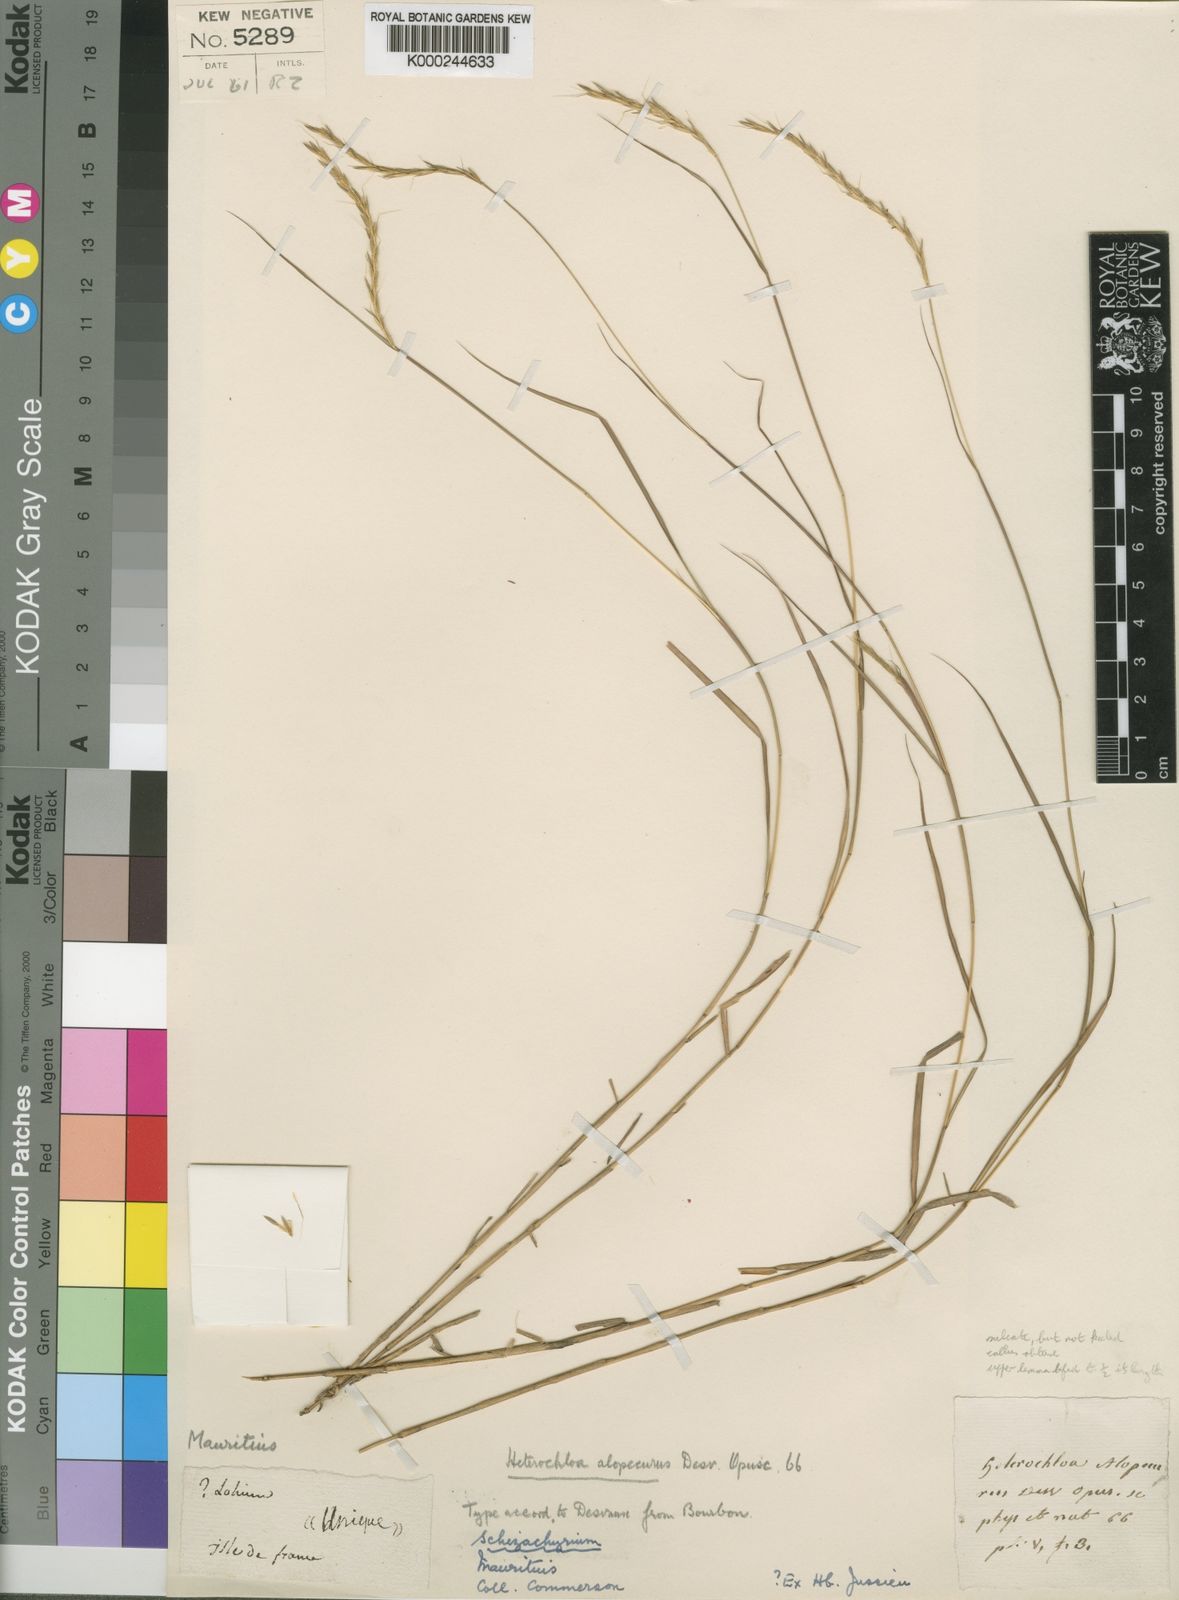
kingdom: Plantae
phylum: Tracheophyta
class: Liliopsida
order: Poales
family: Poaceae
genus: Andropogon
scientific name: Andropogon alopecurus
